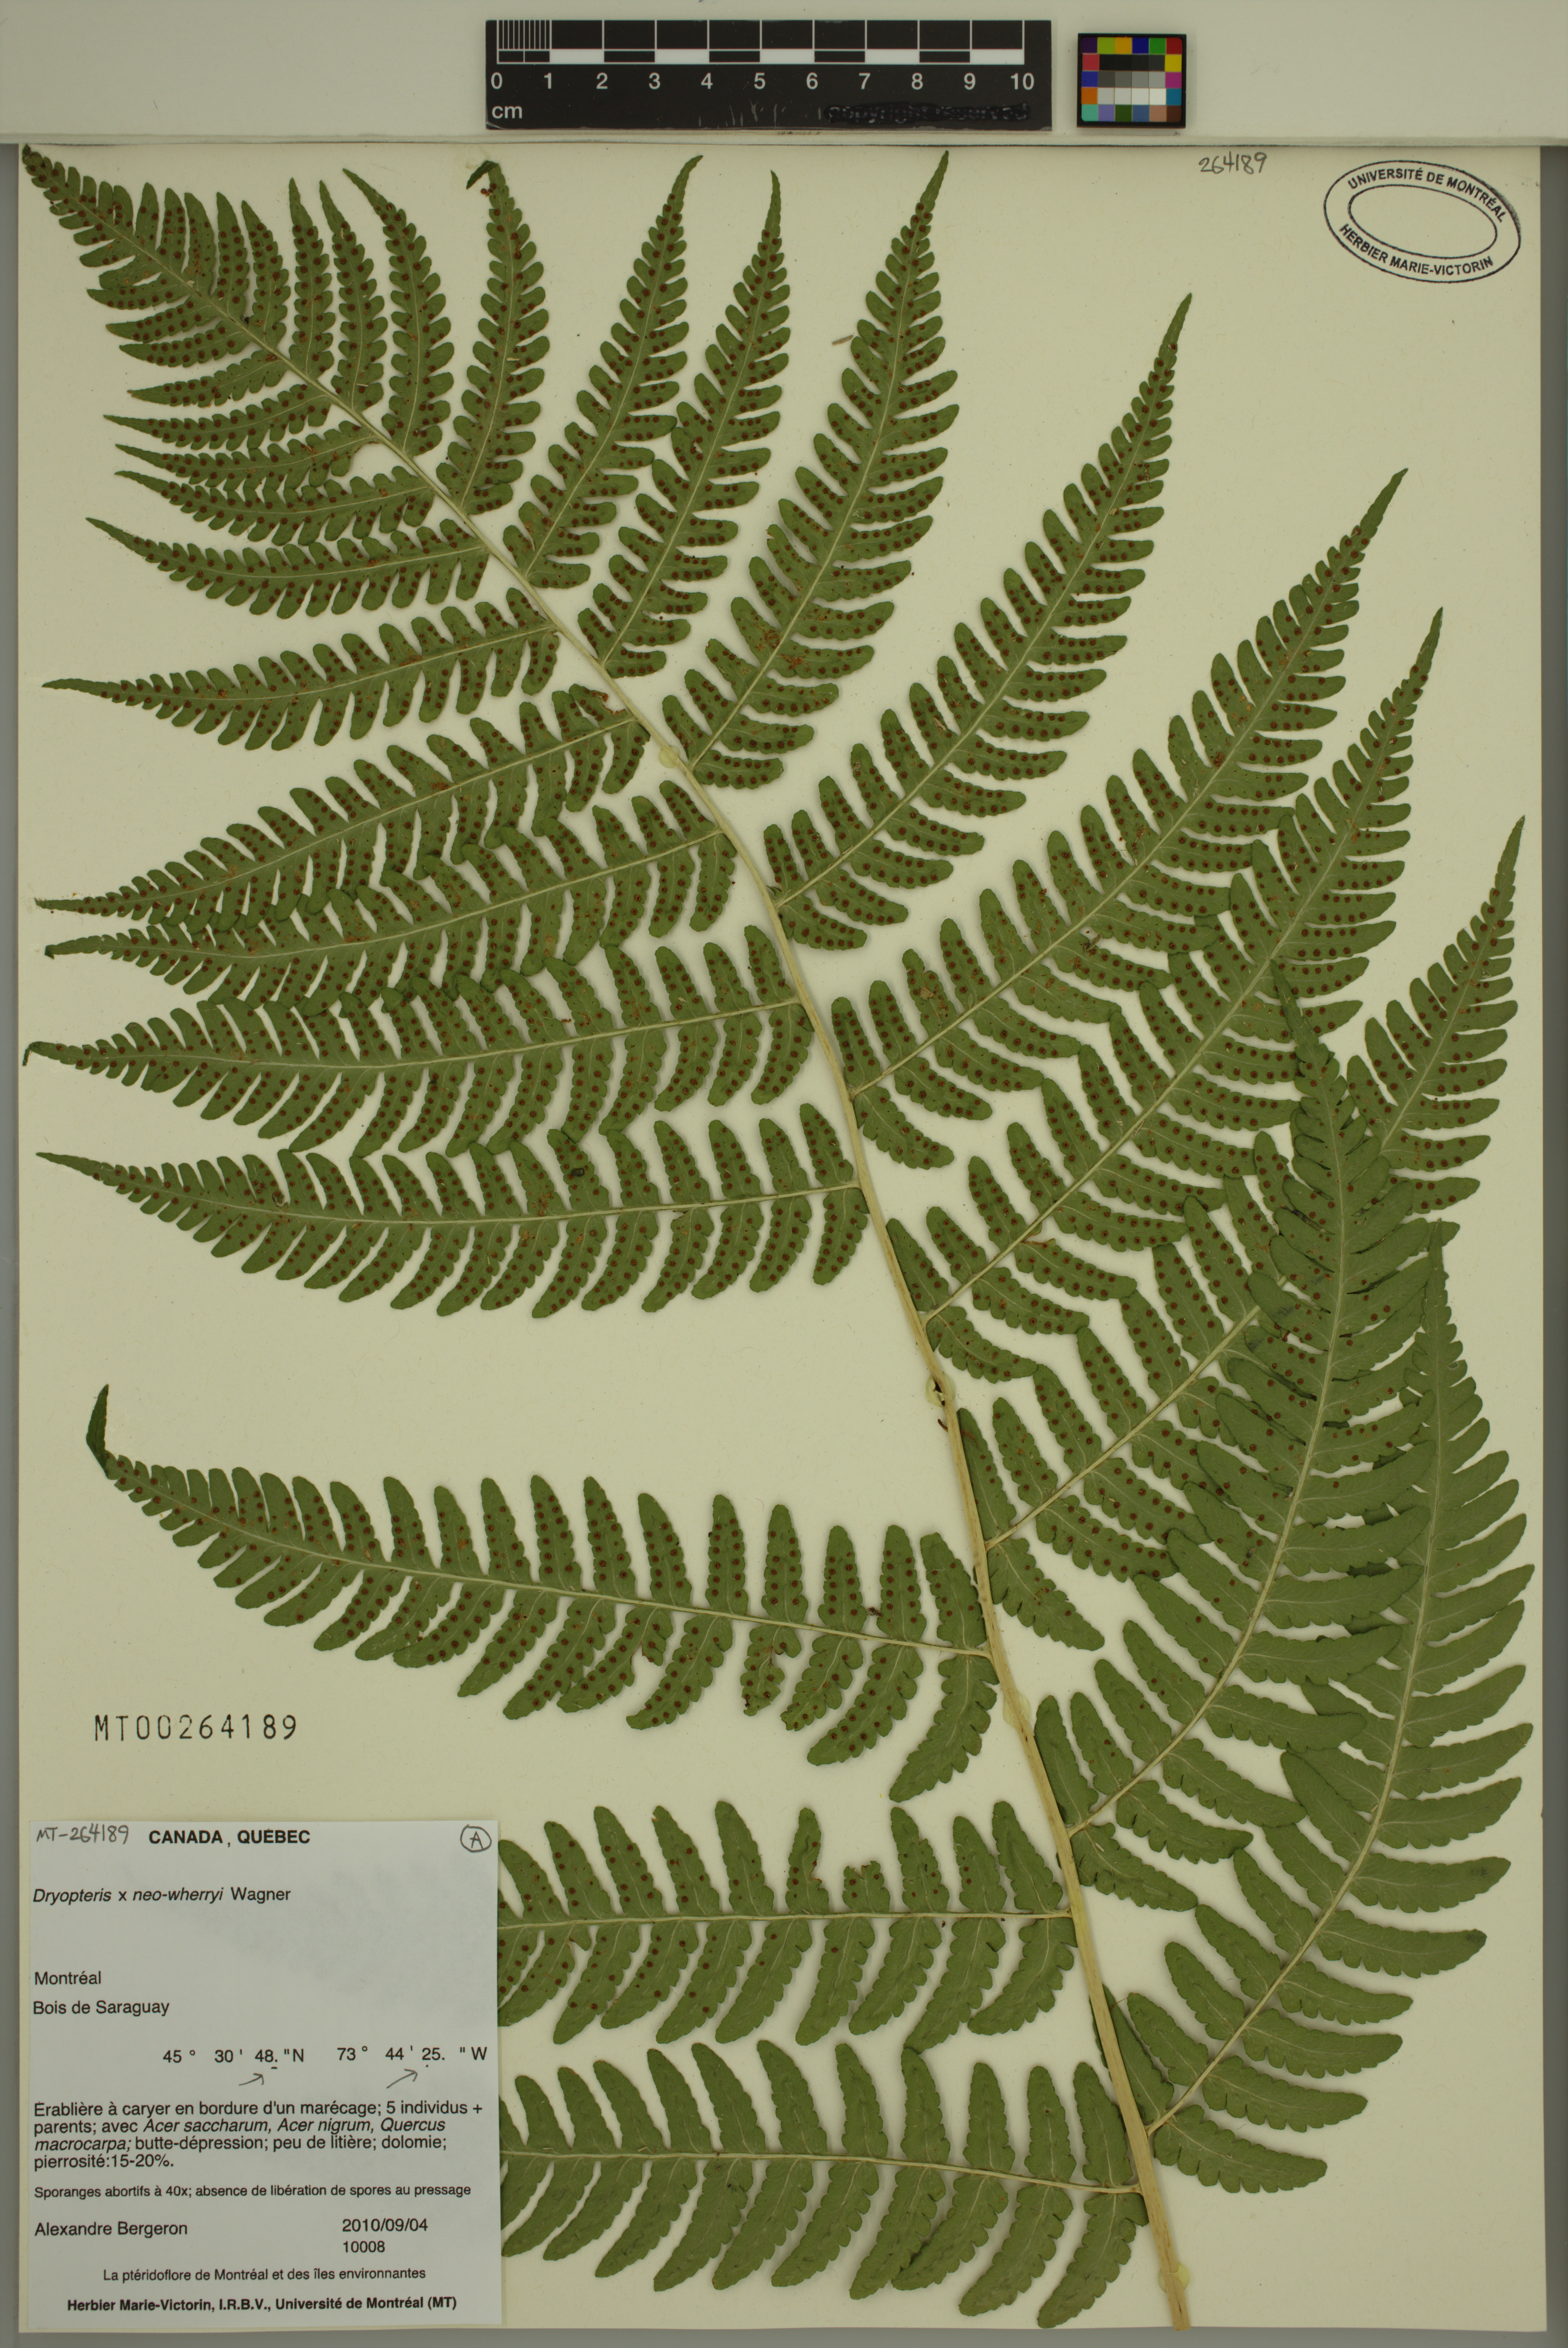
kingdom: Plantae
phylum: Tracheophyta
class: Polypodiopsida
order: Polypodiales
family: Dryopteridaceae
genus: Dryopteris
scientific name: Dryopteris neowherryi
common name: Wherry's wood fern
